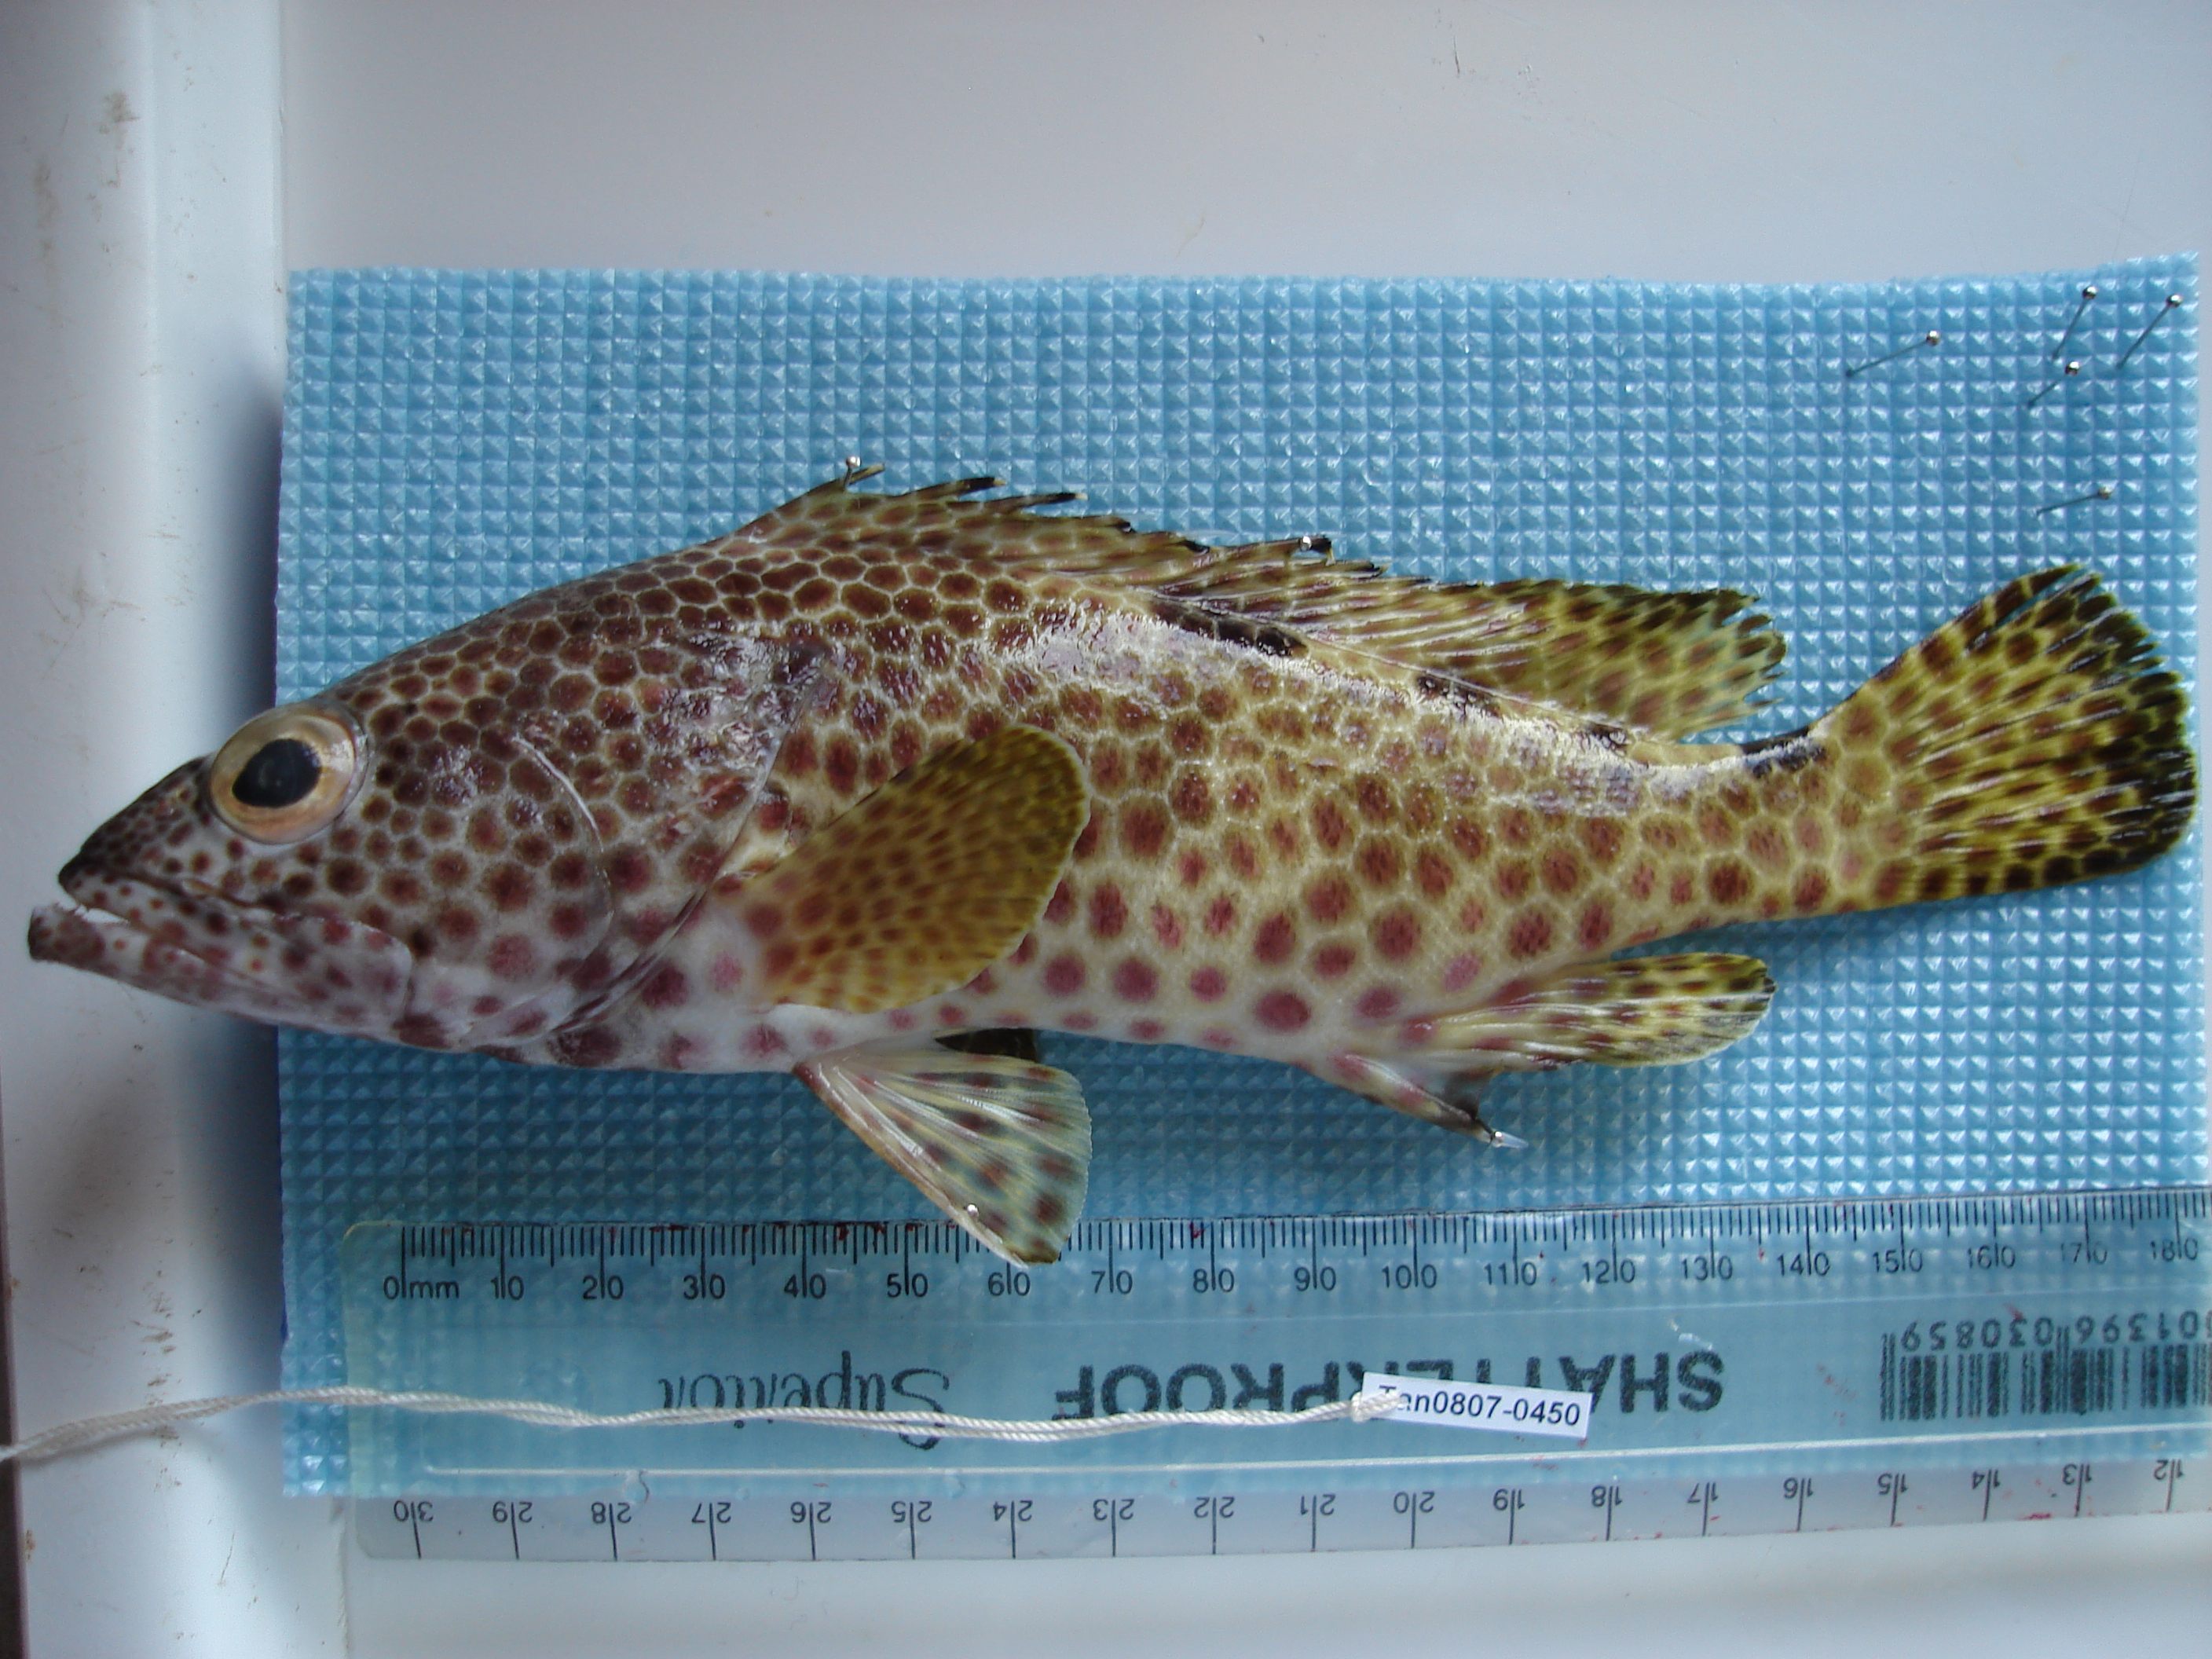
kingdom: Animalia
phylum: Chordata
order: Perciformes
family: Serranidae
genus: Epinephelus
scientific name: Epinephelus hexagonatus
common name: Hexagon grouper
